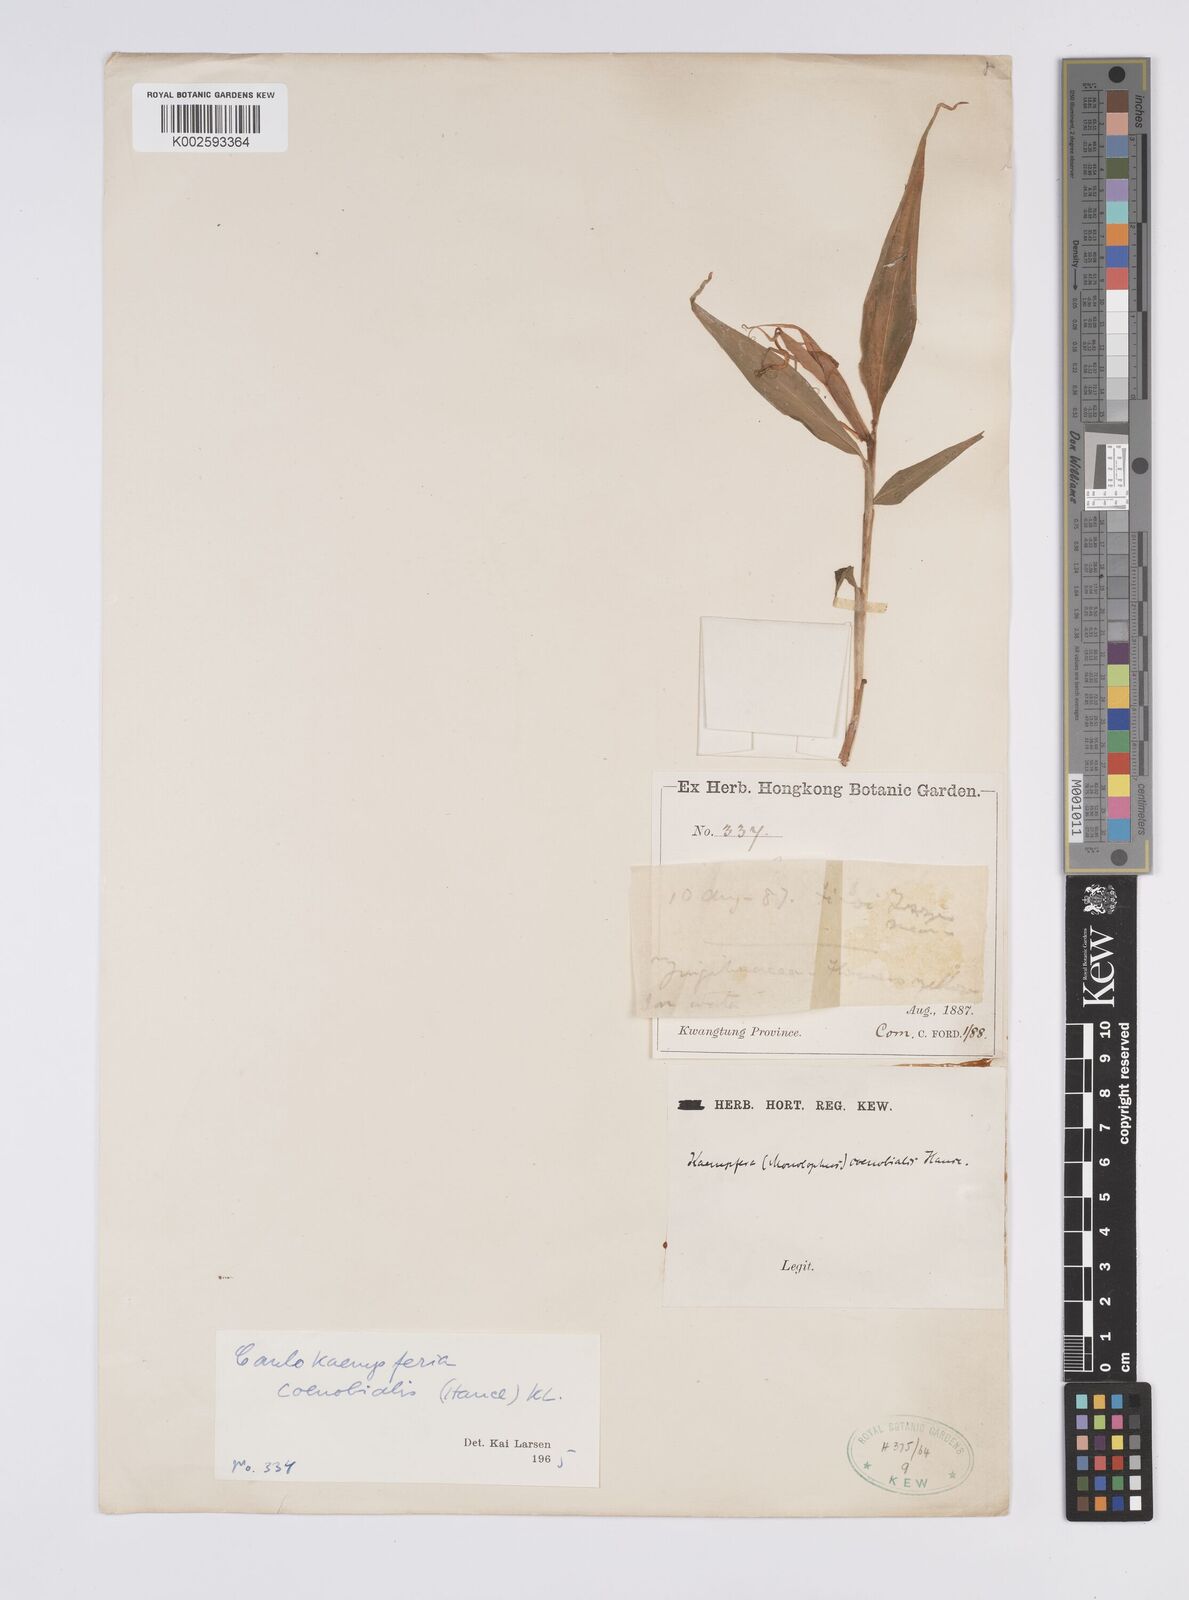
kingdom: Plantae
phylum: Tracheophyta
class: Liliopsida
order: Zingiberales
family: Zingiberaceae
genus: Caulokaempferia
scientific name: Caulokaempferia coenobialis
